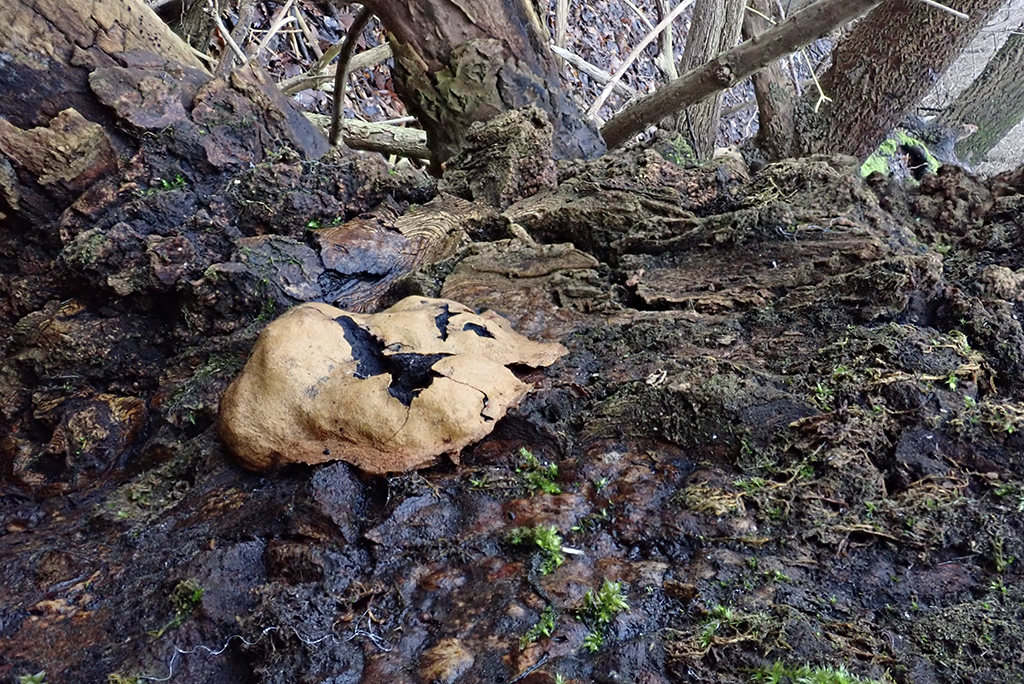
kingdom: Protozoa
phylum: Mycetozoa
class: Myxomycetes
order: Physarales
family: Physaraceae
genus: Fuligo
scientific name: Fuligo leviderma
